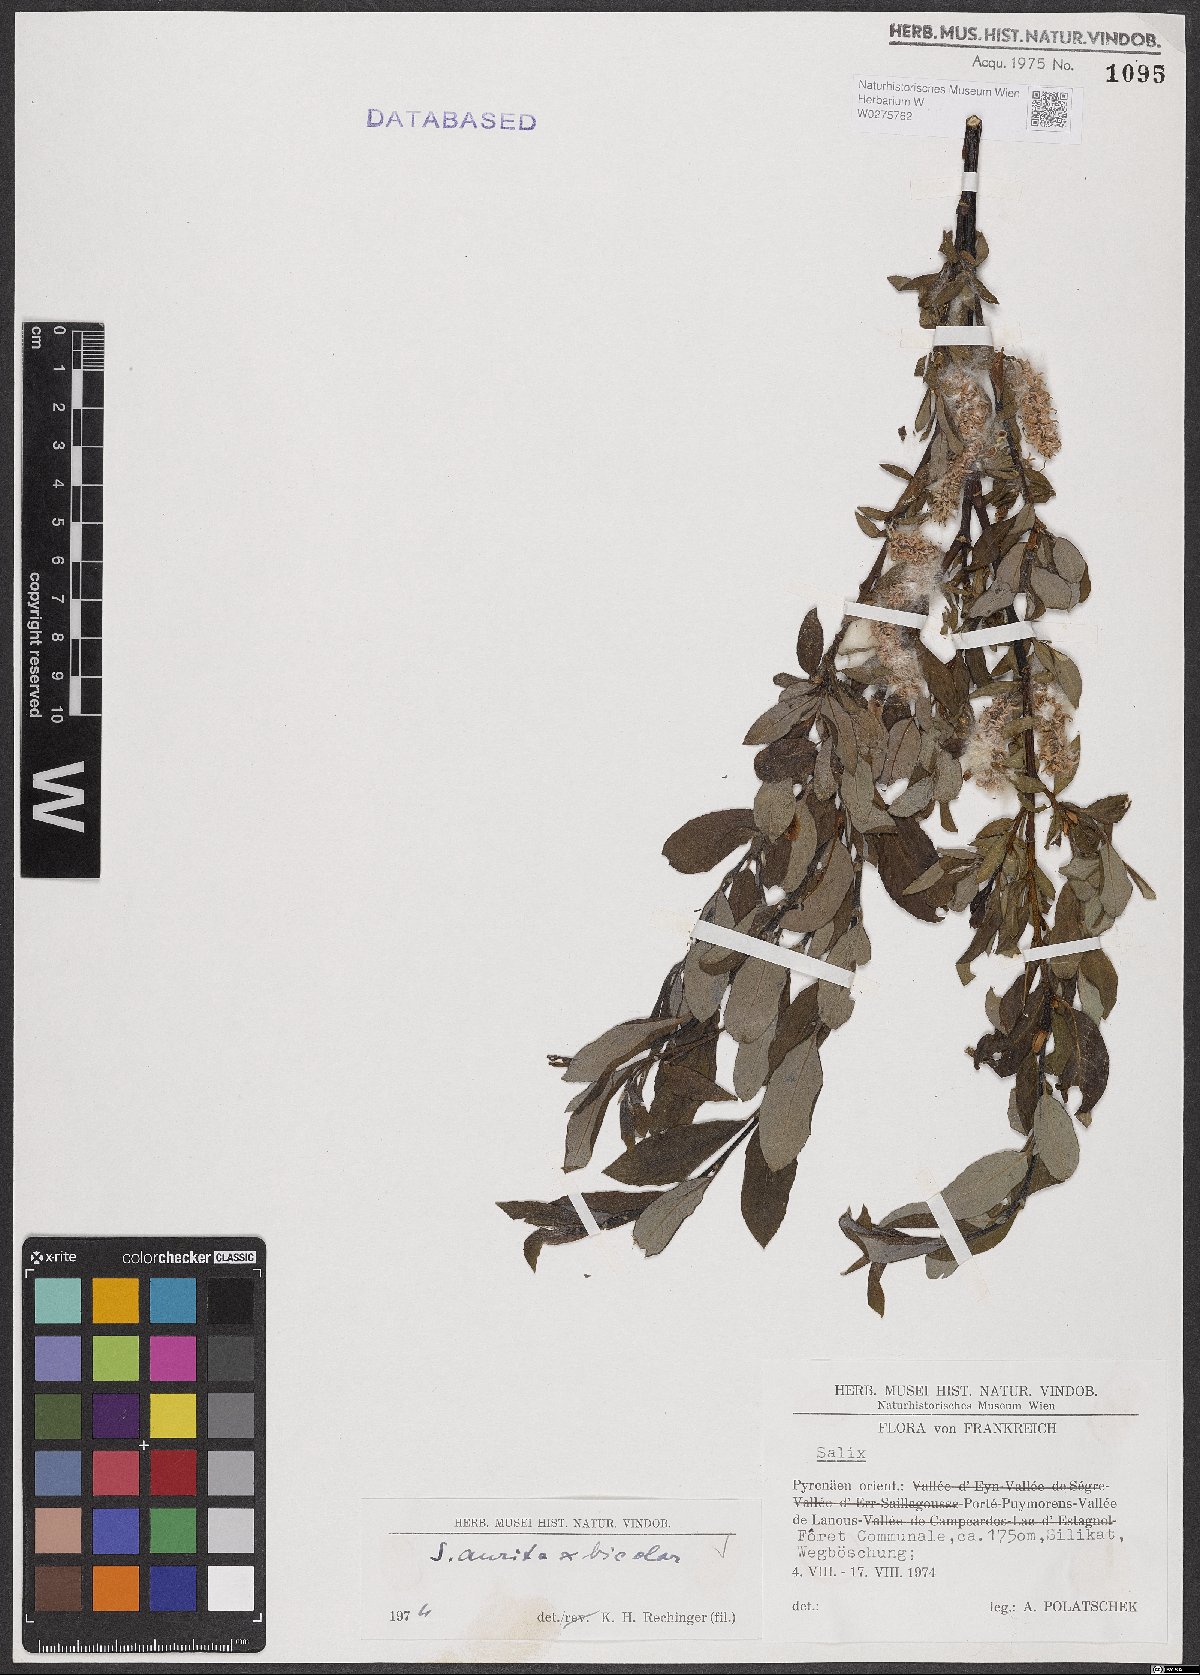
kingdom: Plantae
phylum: Tracheophyta
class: Magnoliopsida
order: Malpighiales
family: Salicaceae
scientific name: Salicaceae
